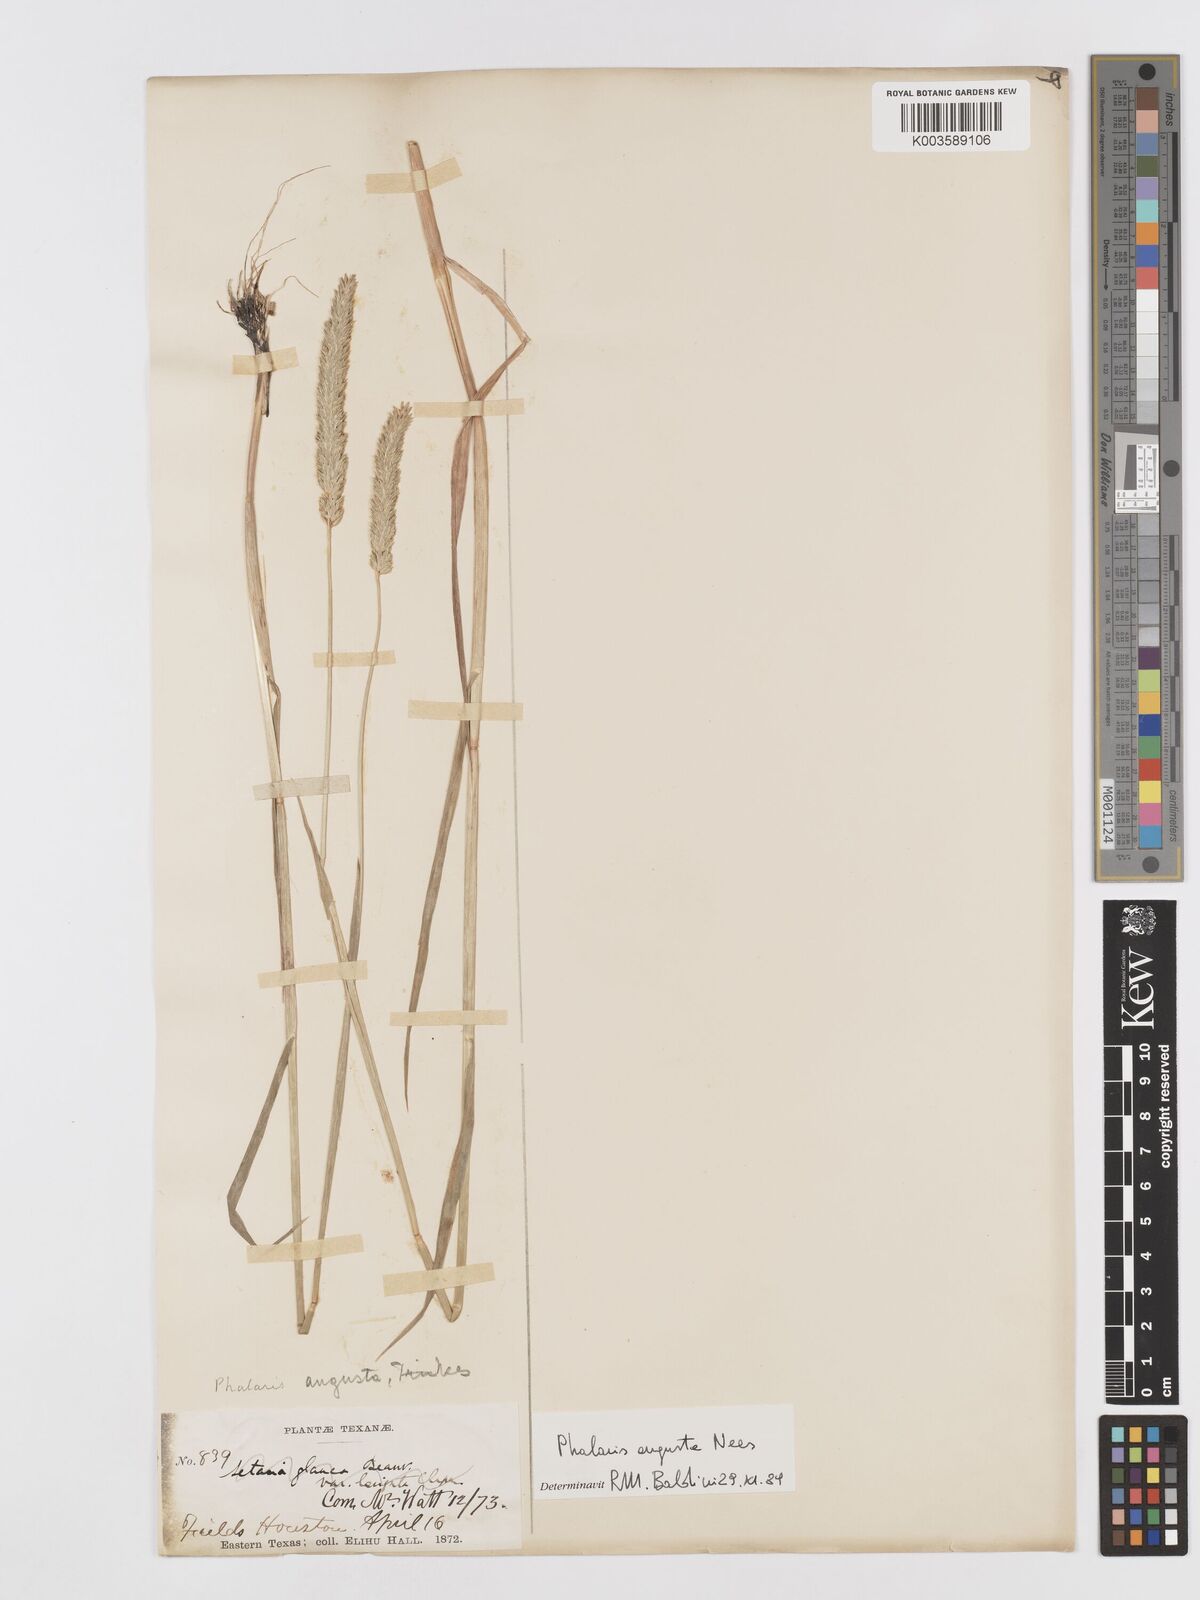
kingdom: Plantae
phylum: Tracheophyta
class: Liliopsida
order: Poales
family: Poaceae
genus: Phalaris
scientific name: Phalaris
